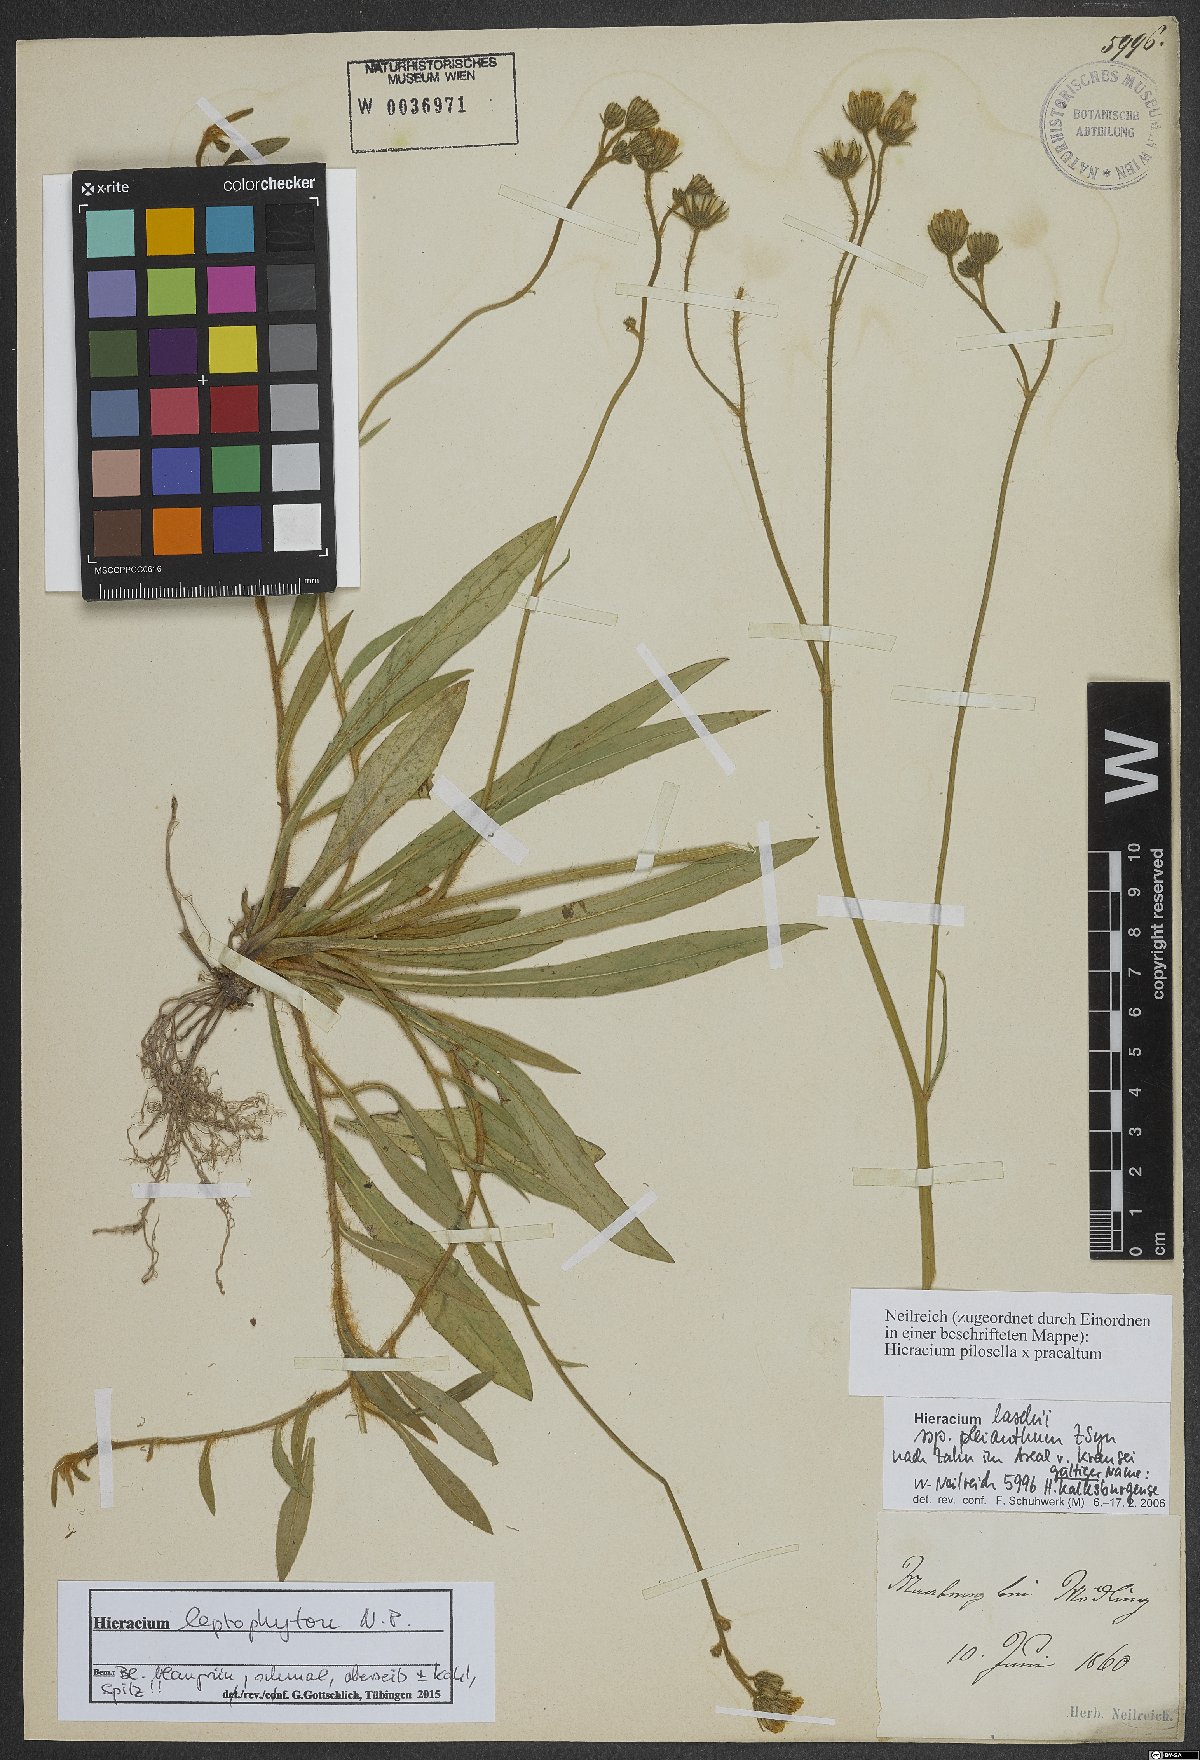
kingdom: Plantae
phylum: Tracheophyta
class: Magnoliopsida
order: Asterales
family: Asteraceae
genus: Pilosella
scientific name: Pilosella leptophyton
